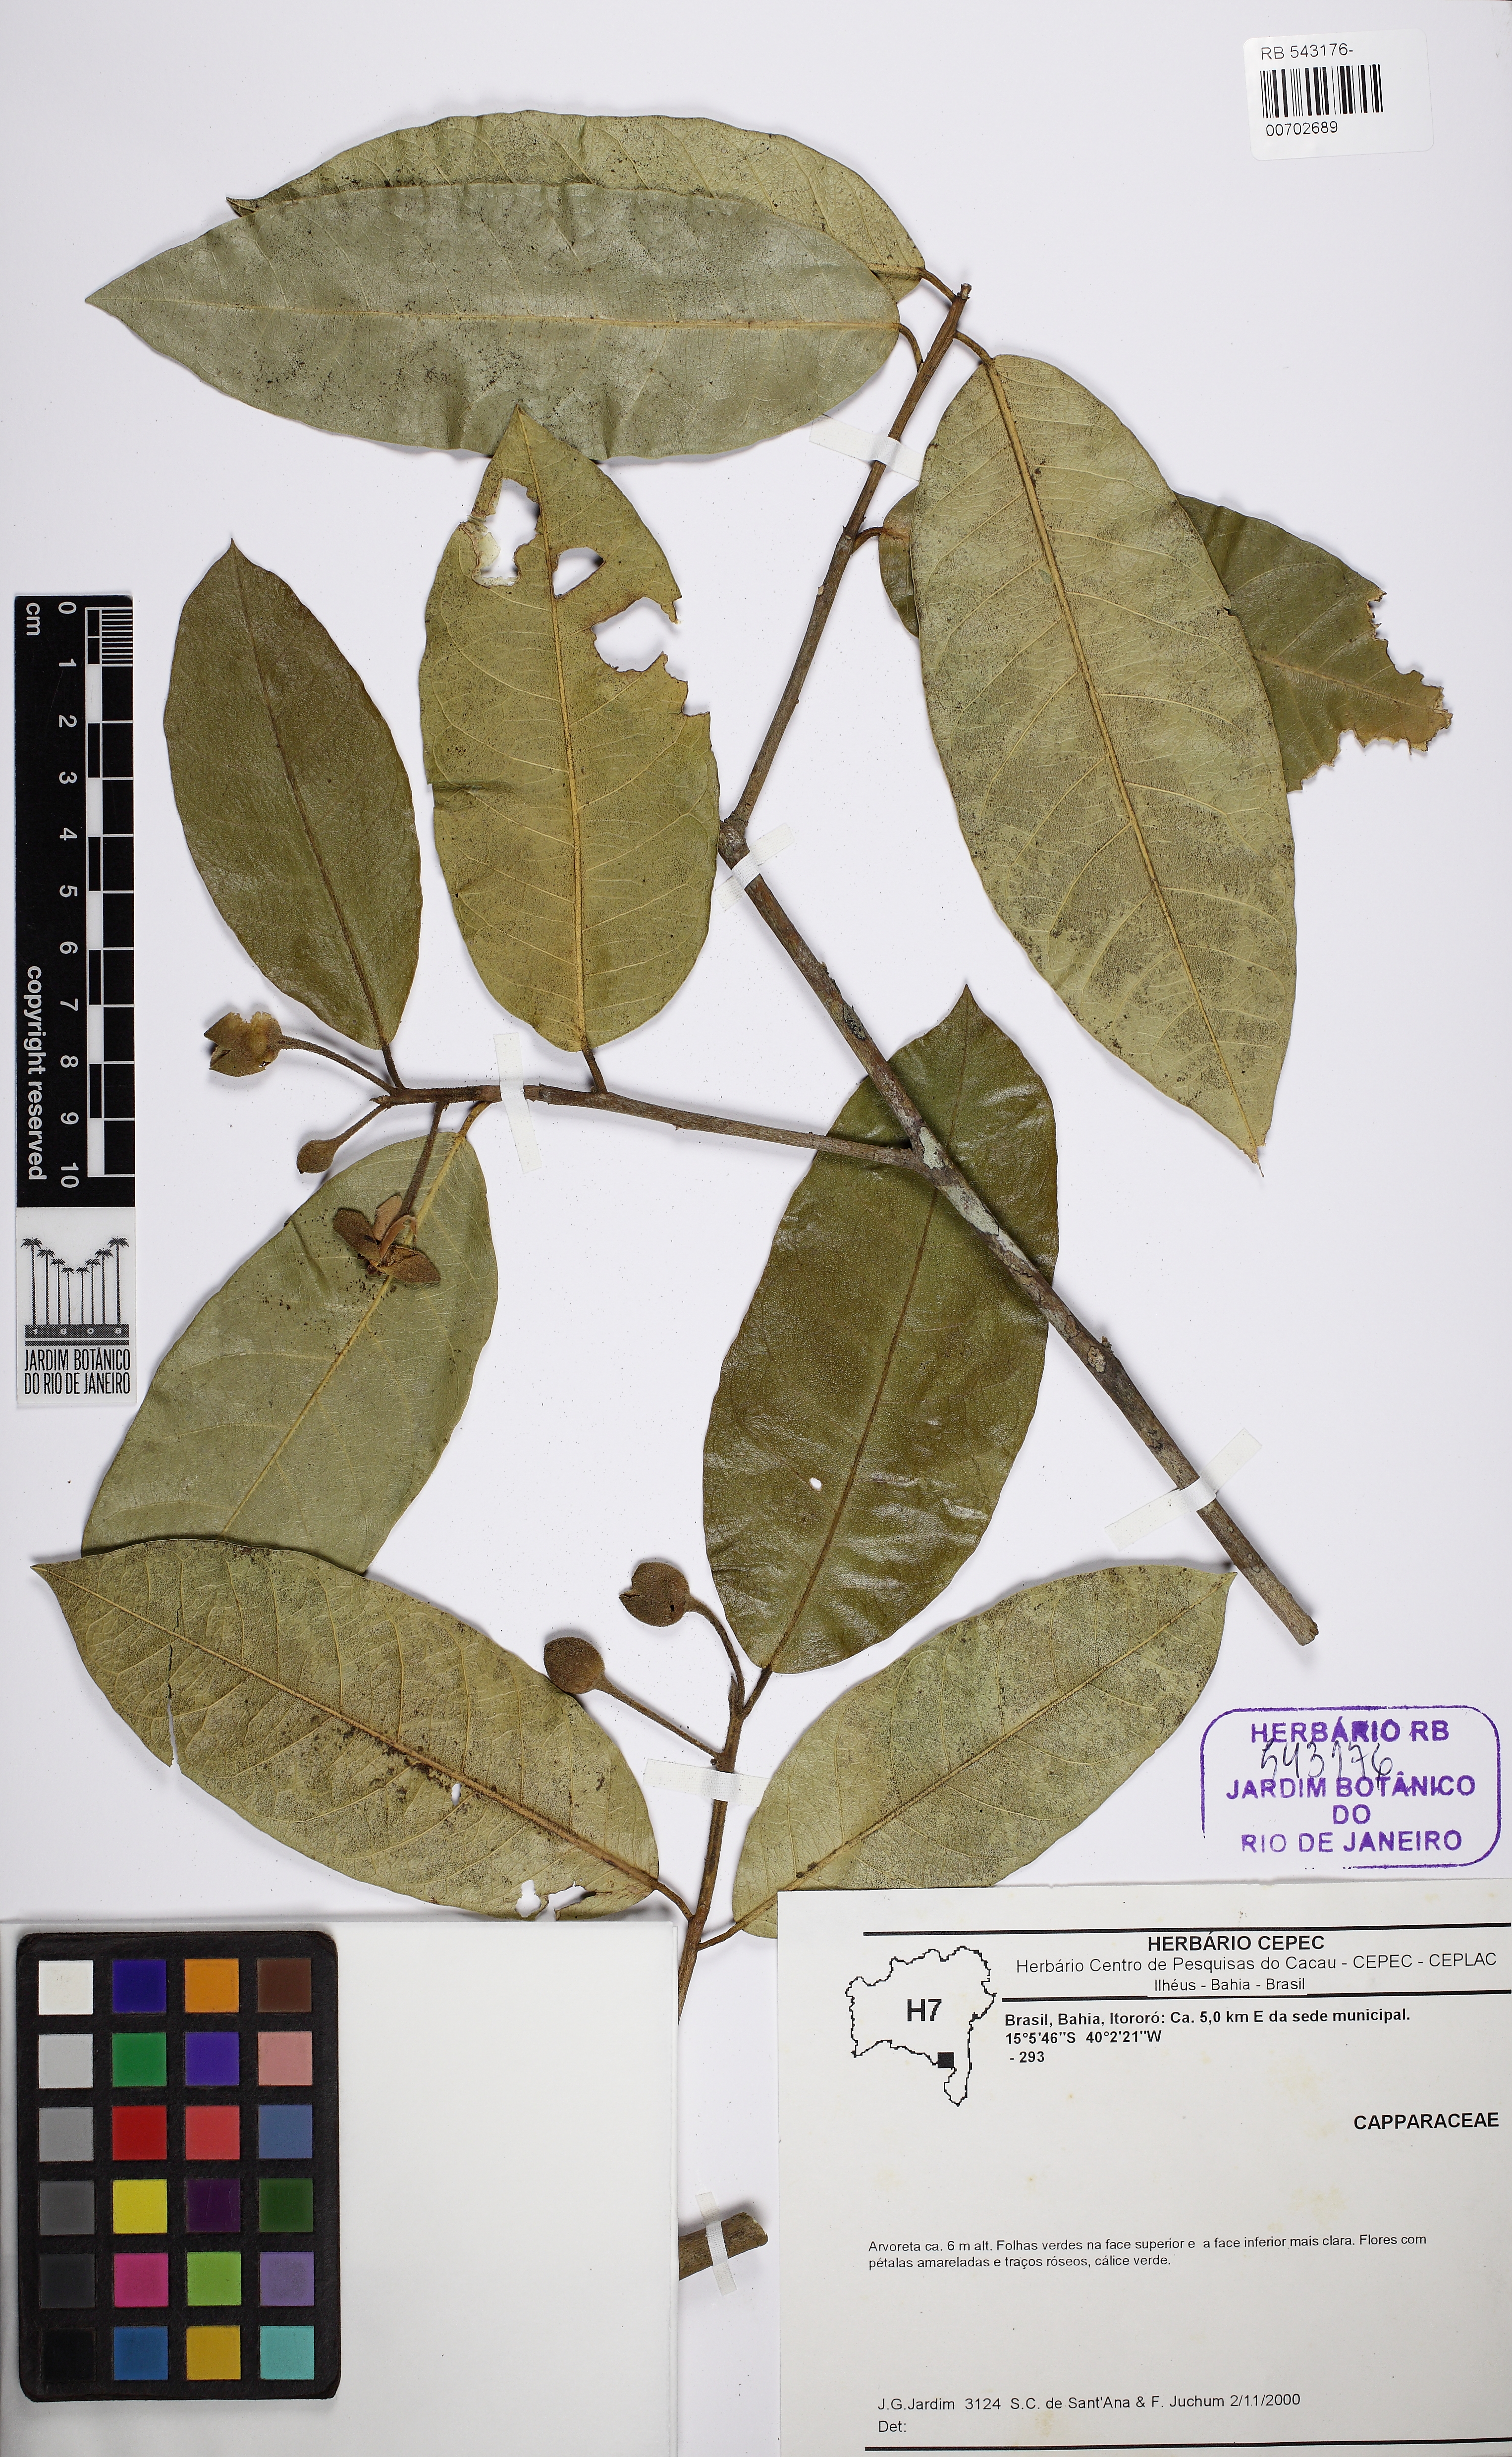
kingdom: Plantae
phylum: Tracheophyta
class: Magnoliopsida
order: Brassicales
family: Capparaceae
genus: Neocalyptrocalyx
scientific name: Neocalyptrocalyx atlanticus
